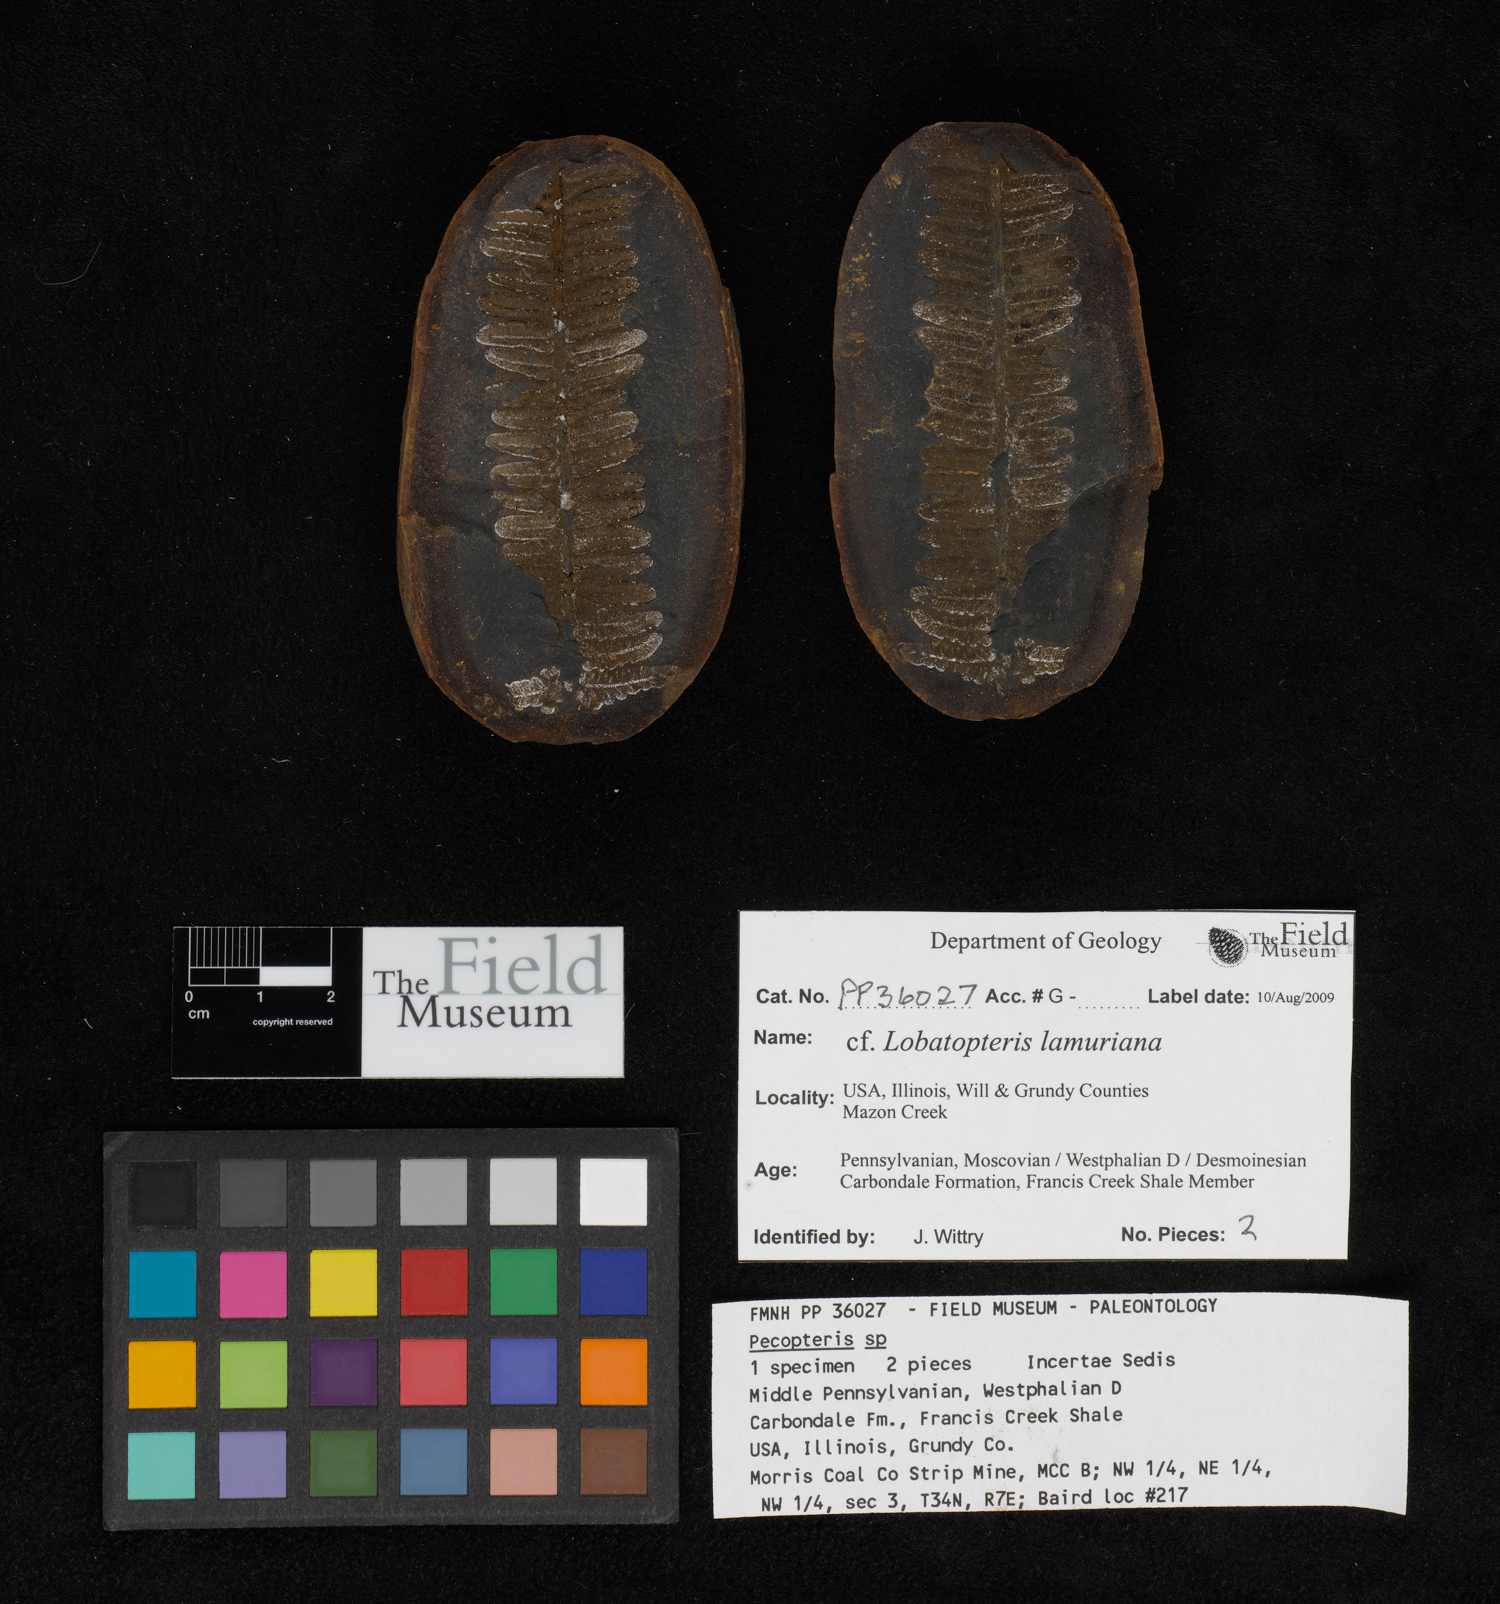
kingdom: Plantae
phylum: Tracheophyta
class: Polypodiopsida
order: Marattiales
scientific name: Marattiales
